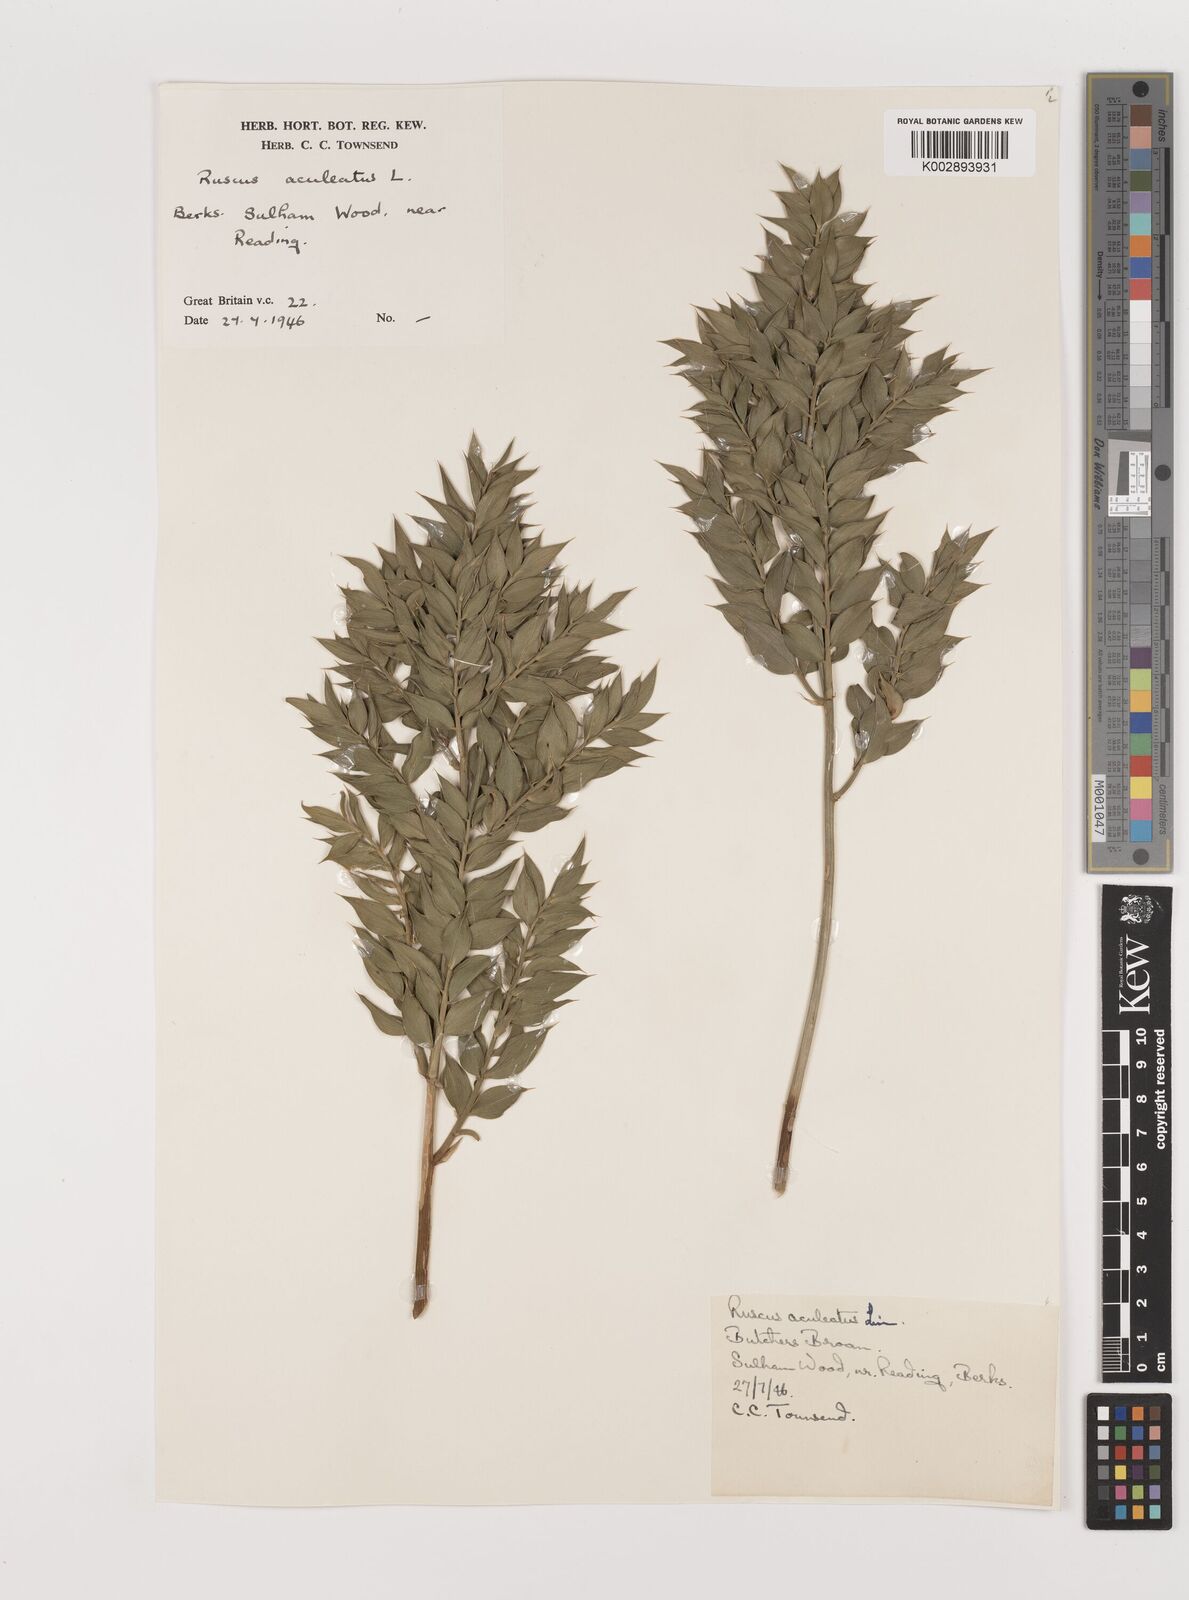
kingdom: Plantae
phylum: Tracheophyta
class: Liliopsida
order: Asparagales
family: Asparagaceae
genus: Ruscus
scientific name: Ruscus aculeatus
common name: Butcher's-broom
